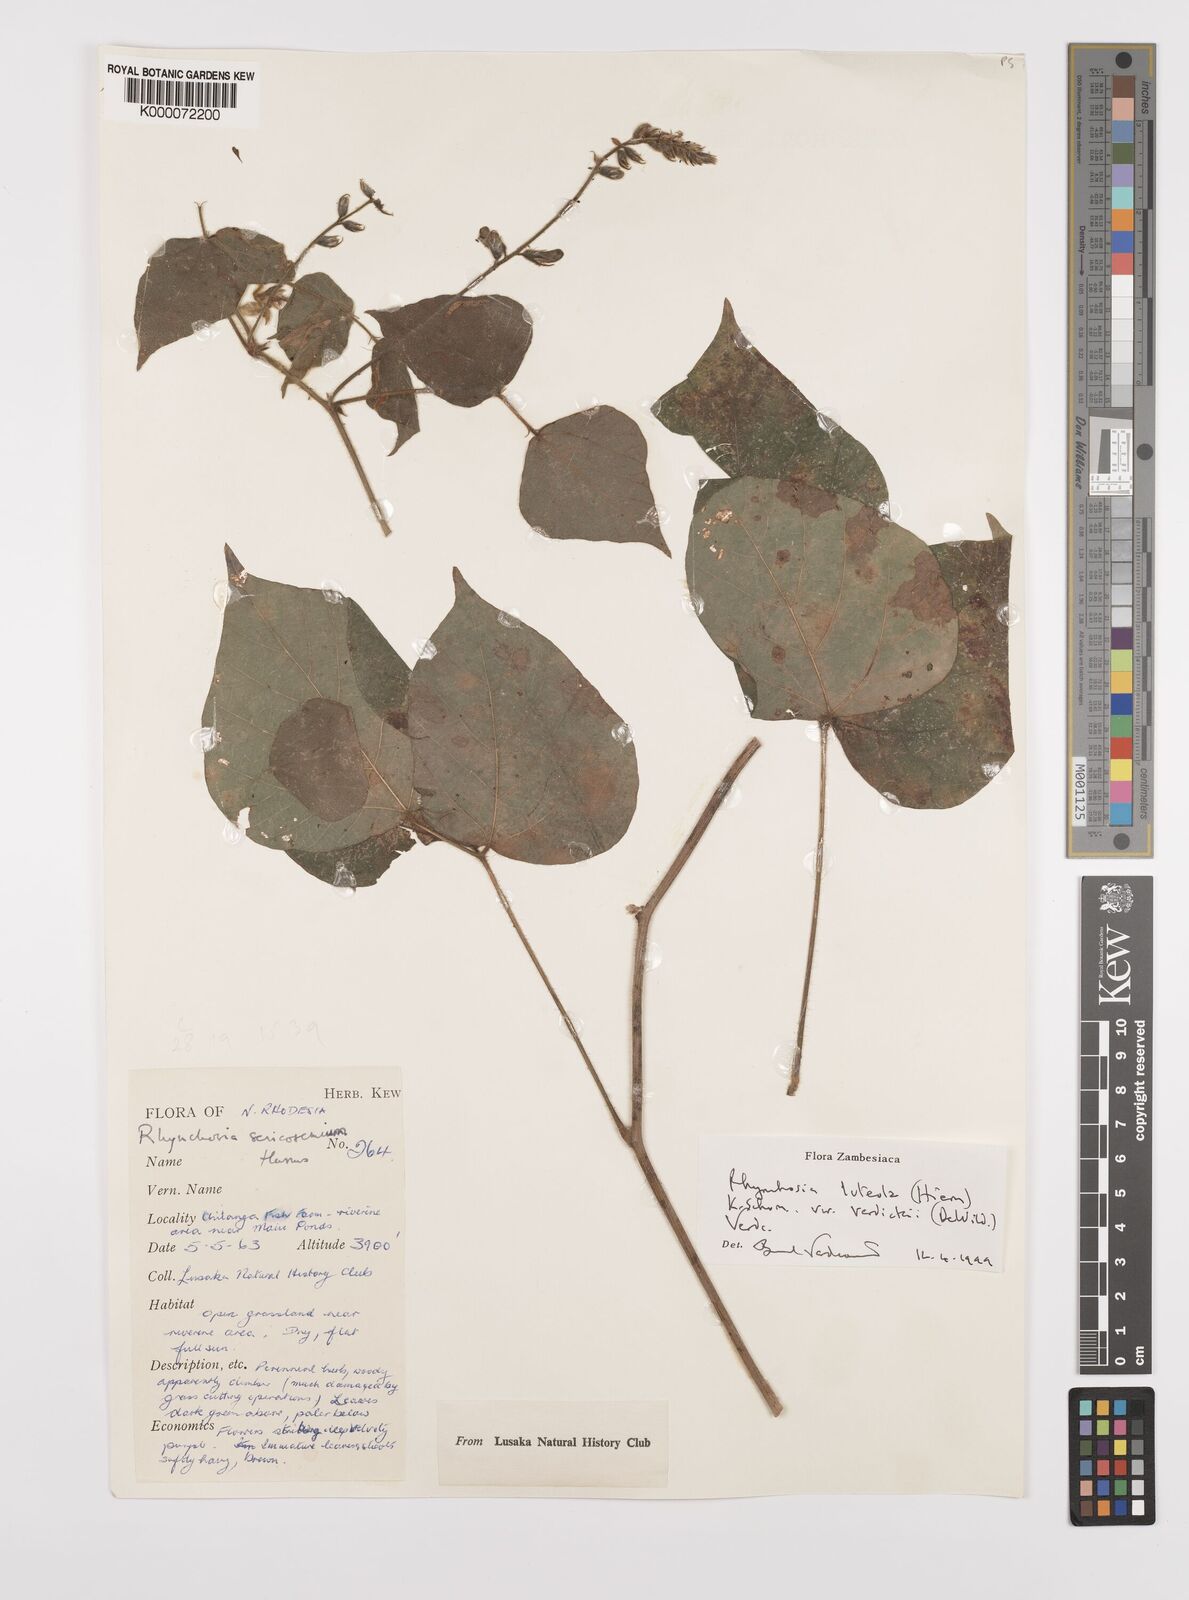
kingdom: Plantae
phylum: Tracheophyta
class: Magnoliopsida
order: Fabales
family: Fabaceae
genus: Rhynchosia
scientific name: Rhynchosia luteola
